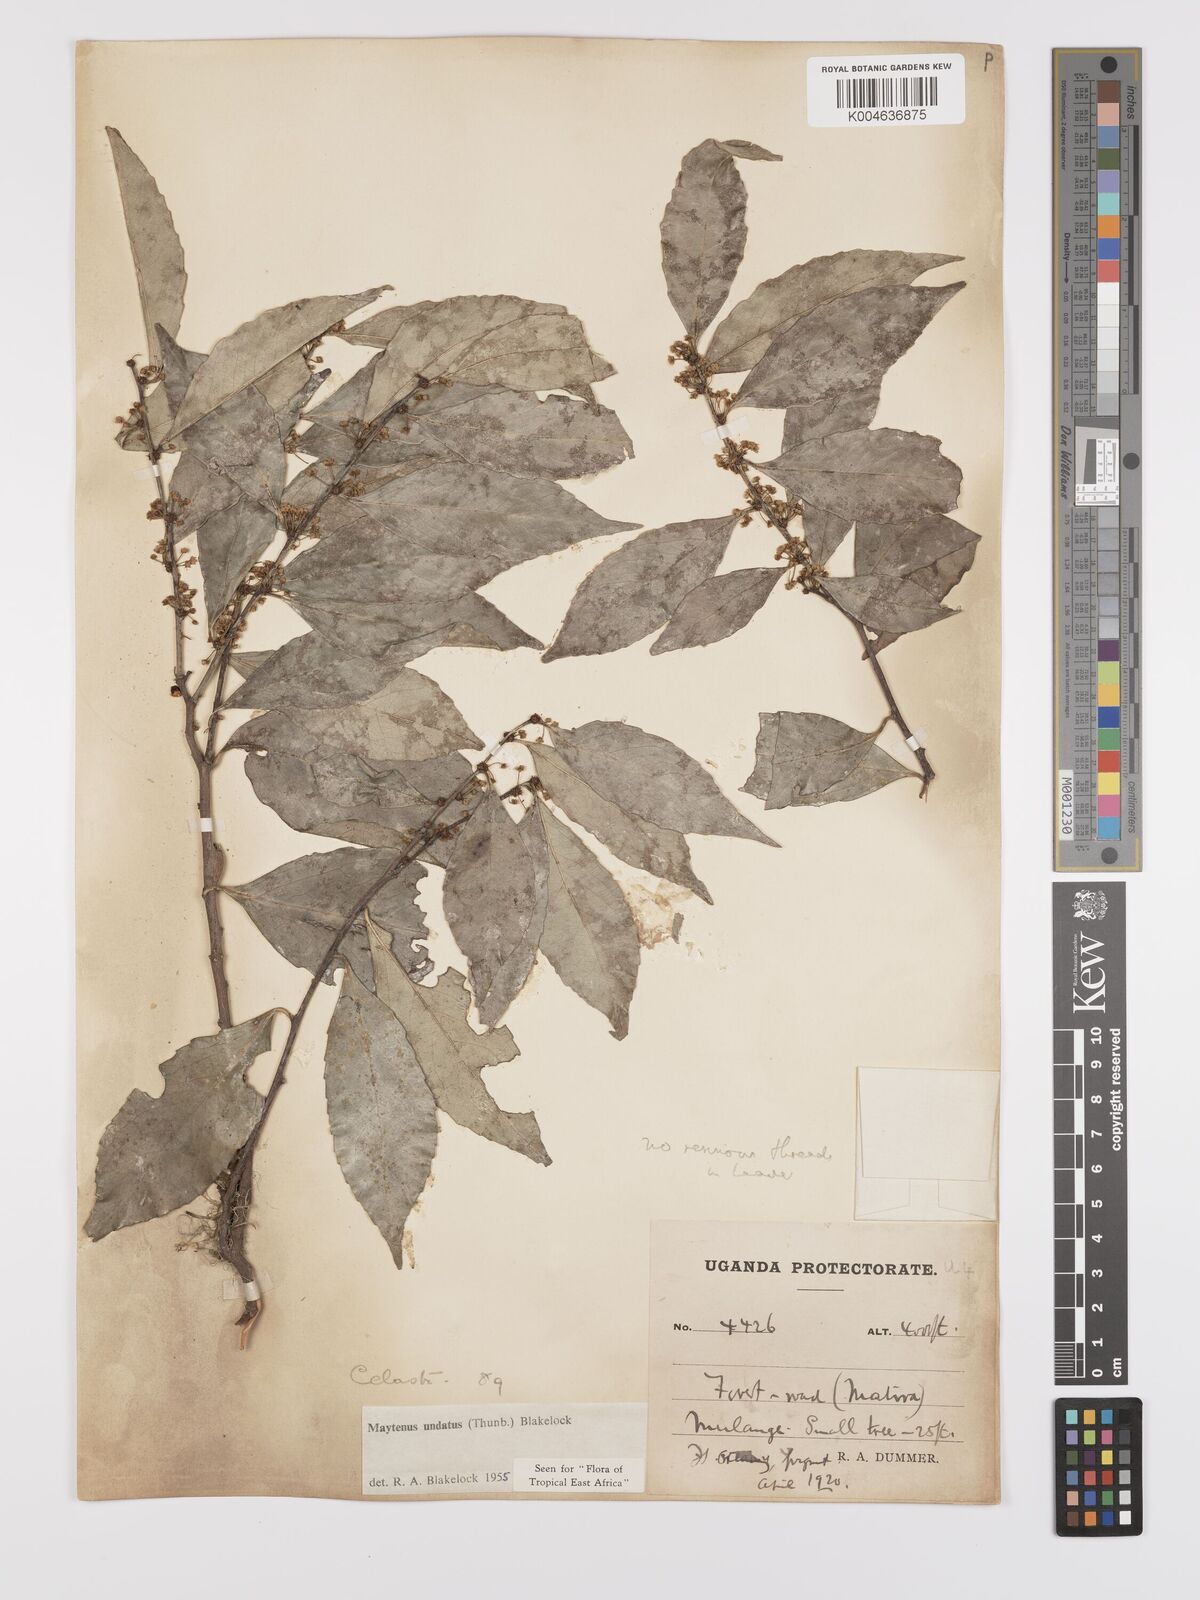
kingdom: Plantae
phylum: Tracheophyta
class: Magnoliopsida
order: Celastrales
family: Celastraceae
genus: Gymnosporia
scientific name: Gymnosporia undata
